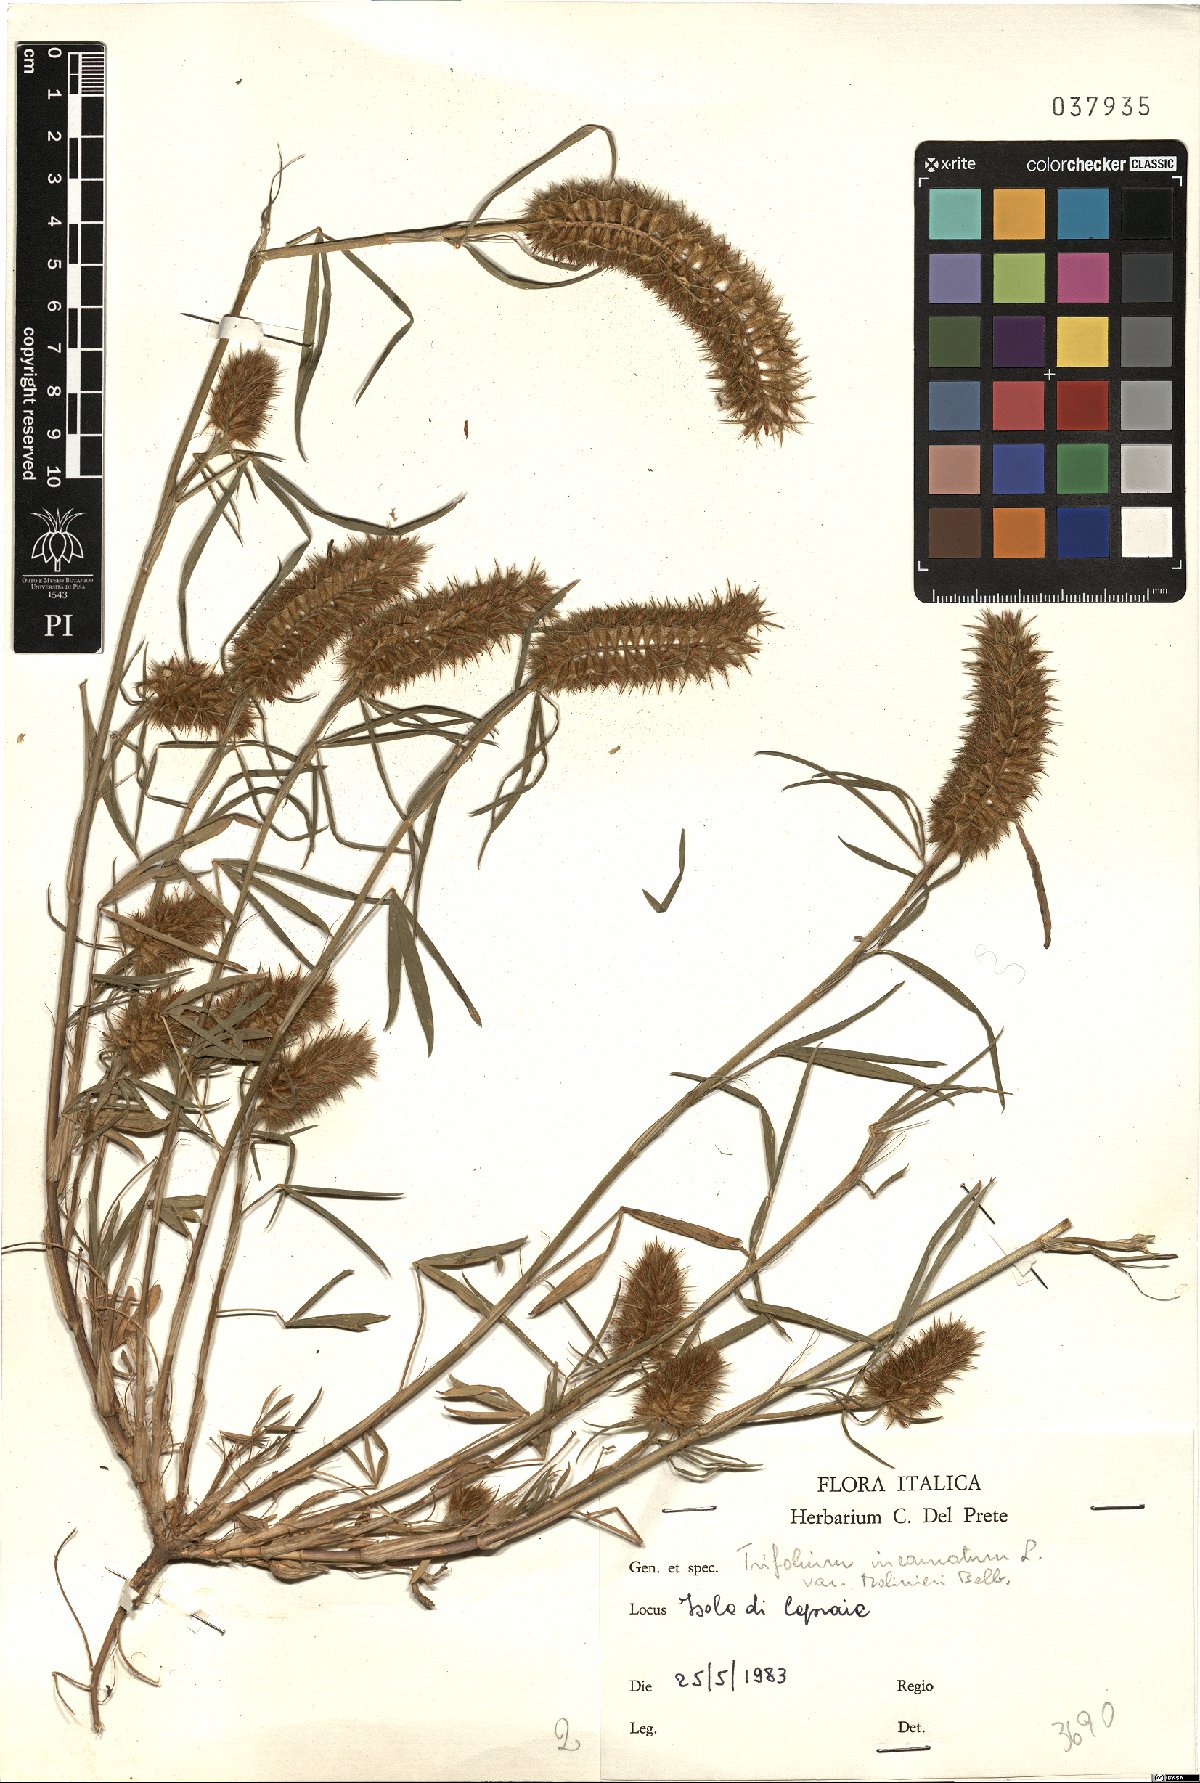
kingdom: Plantae
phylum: Tracheophyta
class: Magnoliopsida
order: Fabales
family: Fabaceae
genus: Trifolium
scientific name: Trifolium incarnatum
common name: Crimson clover
